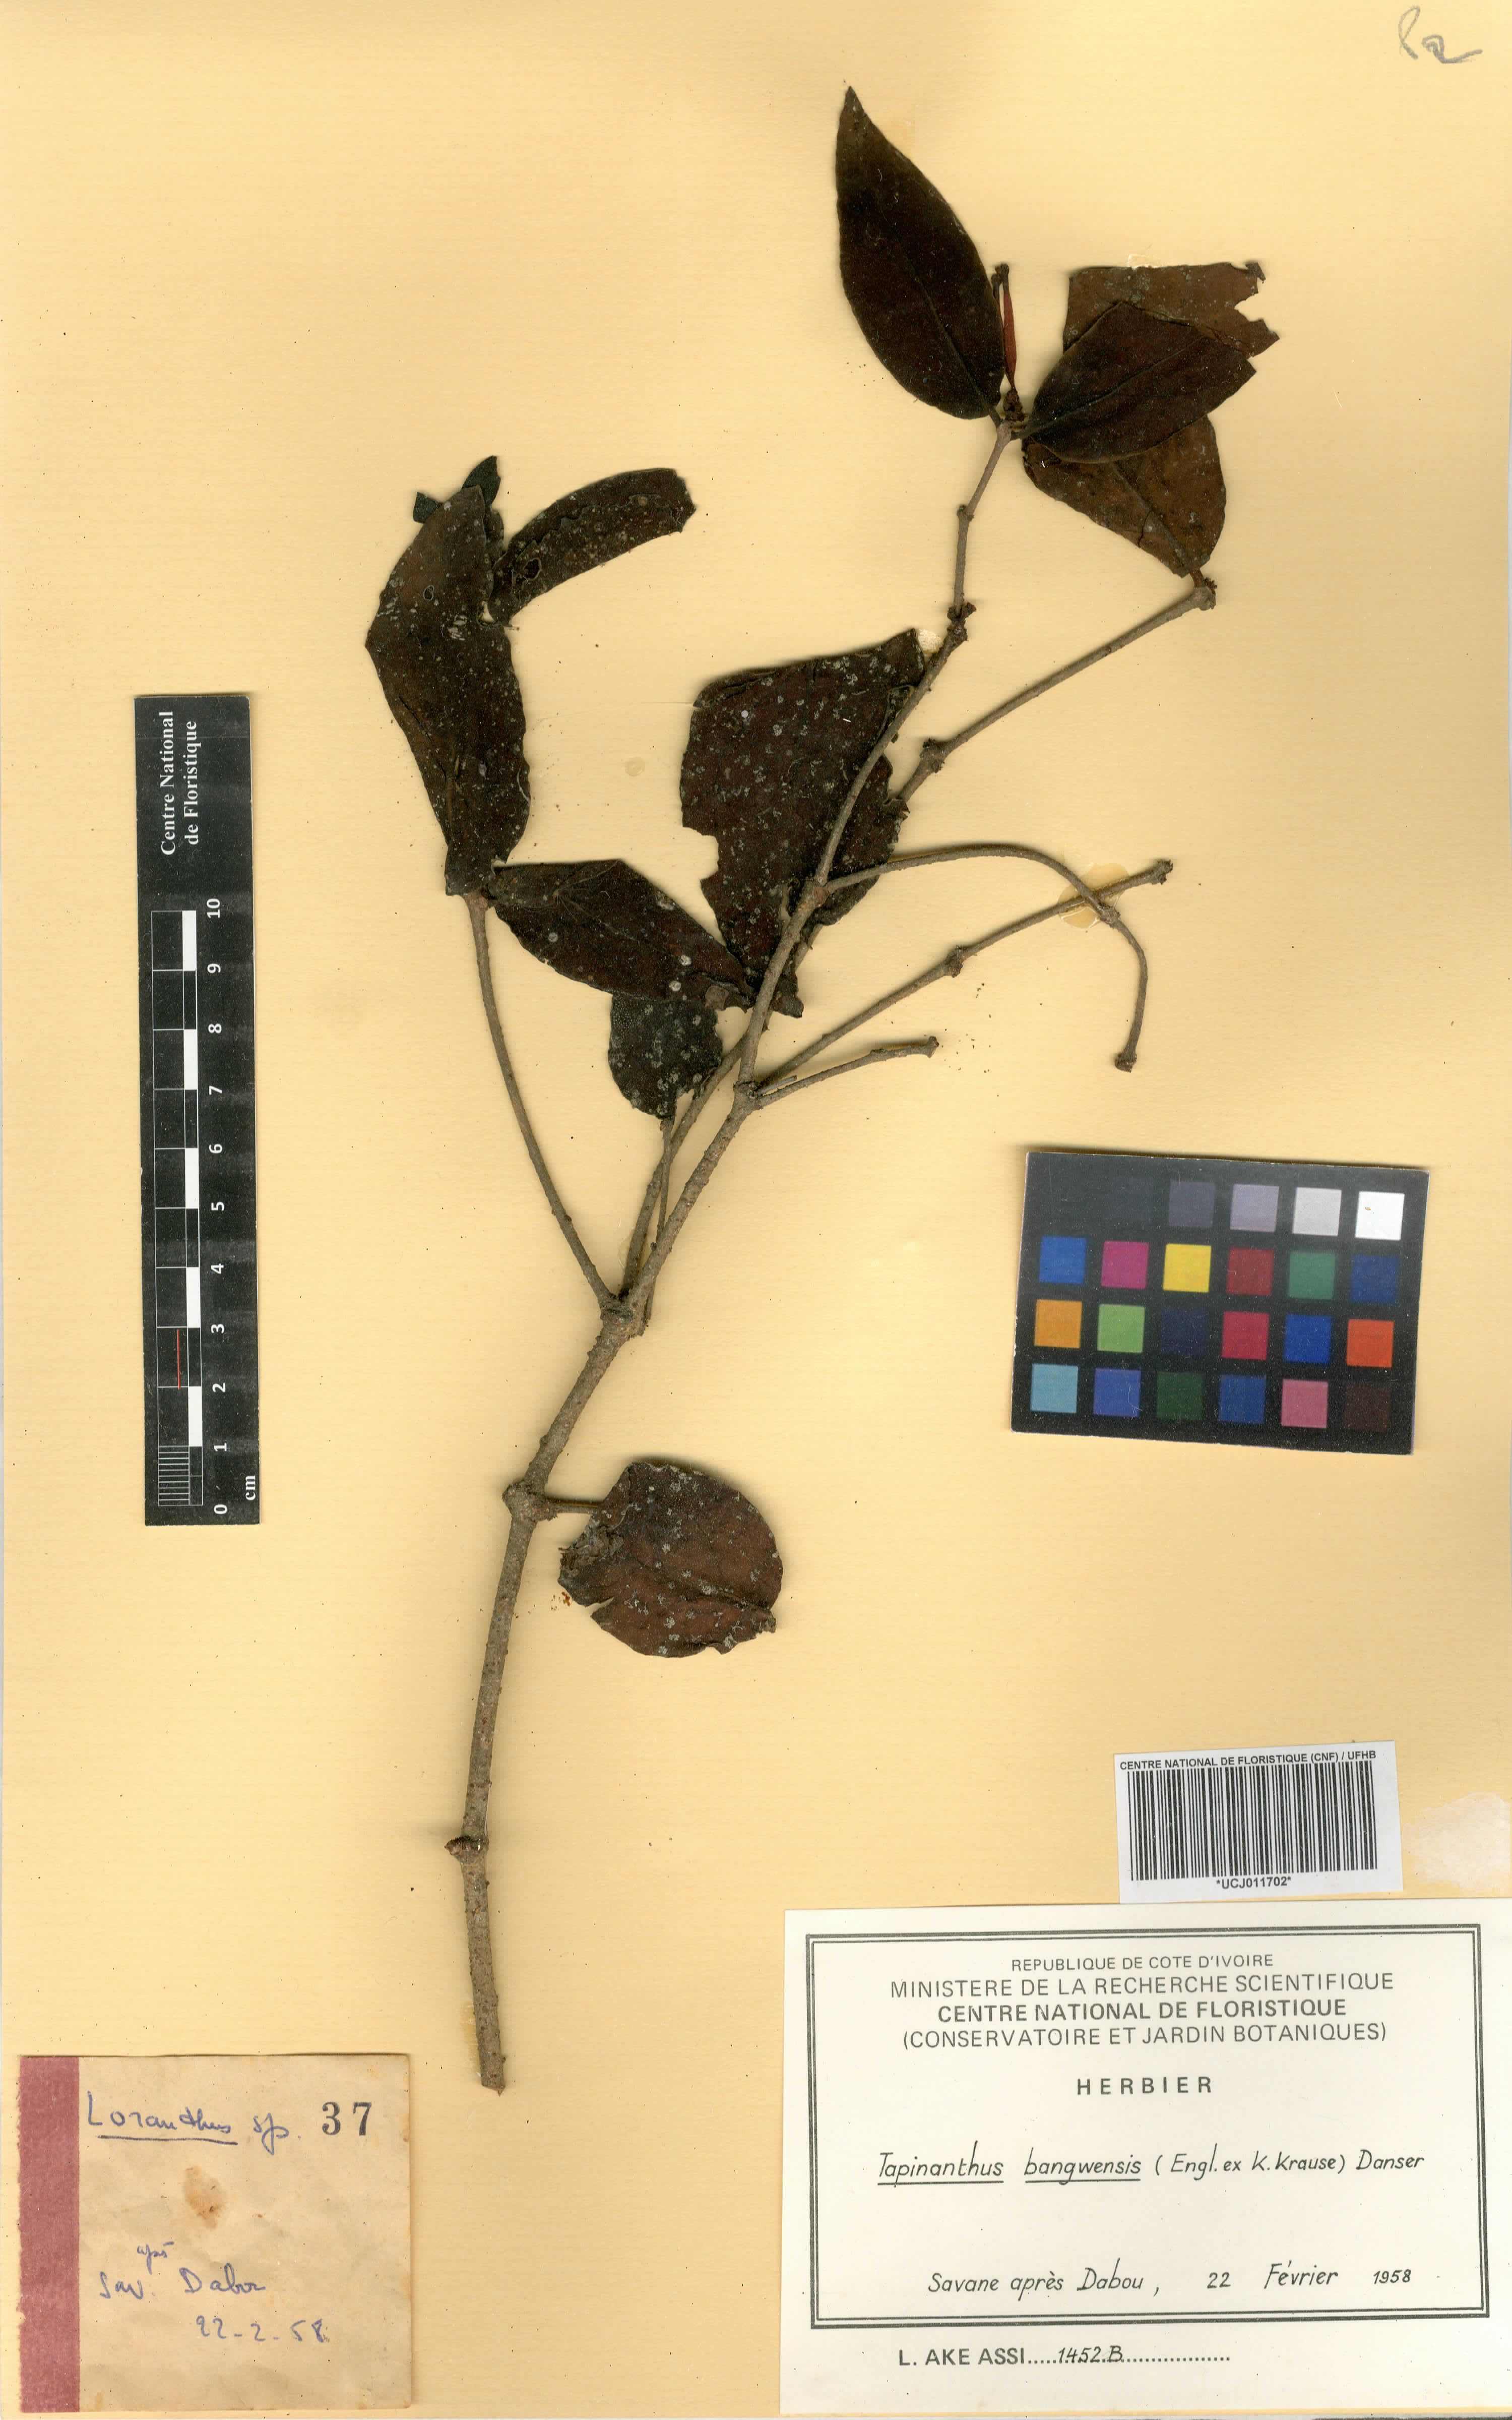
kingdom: Plantae
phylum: Tracheophyta
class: Magnoliopsida
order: Santalales
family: Loranthaceae
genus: Tapinanthus
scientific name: Tapinanthus bangwensis
